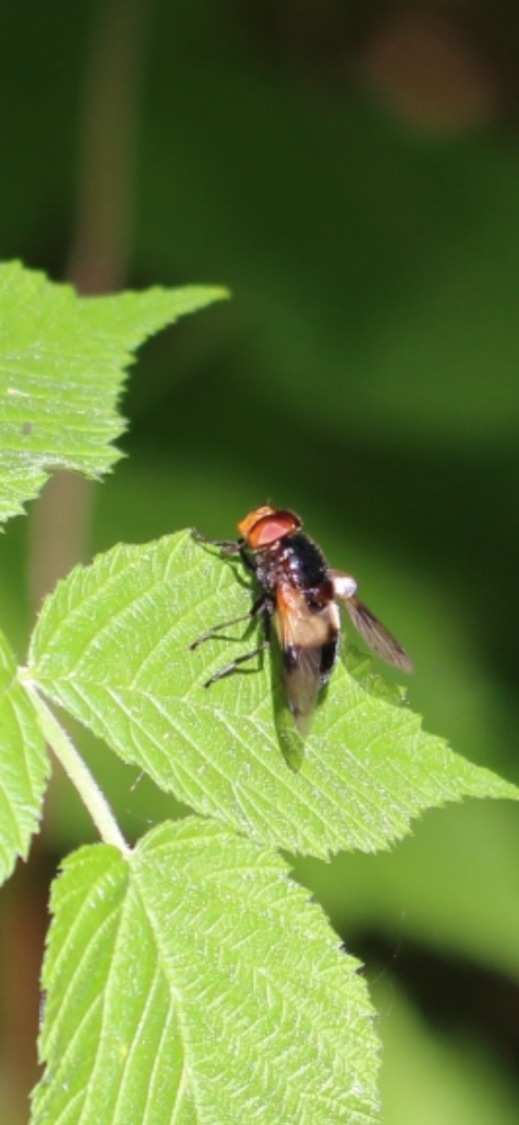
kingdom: Animalia
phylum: Arthropoda
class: Insecta
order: Diptera
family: Syrphidae
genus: Volucella
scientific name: Volucella pellucens
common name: Hvidbåndet humlesvirreflue
